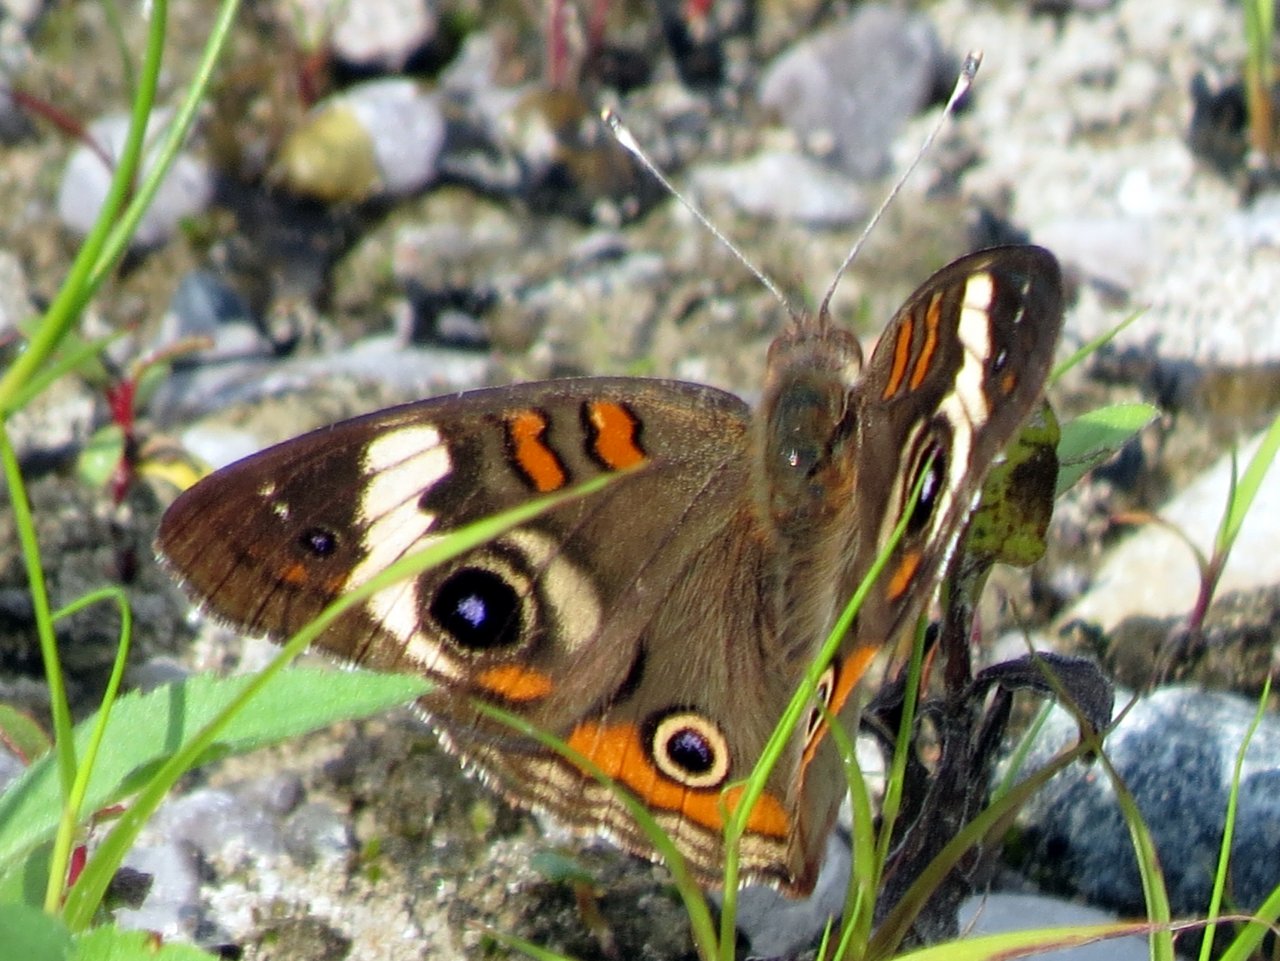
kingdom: Animalia
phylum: Arthropoda
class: Insecta
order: Lepidoptera
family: Nymphalidae
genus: Junonia
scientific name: Junonia coenia
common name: Common Buckeye
